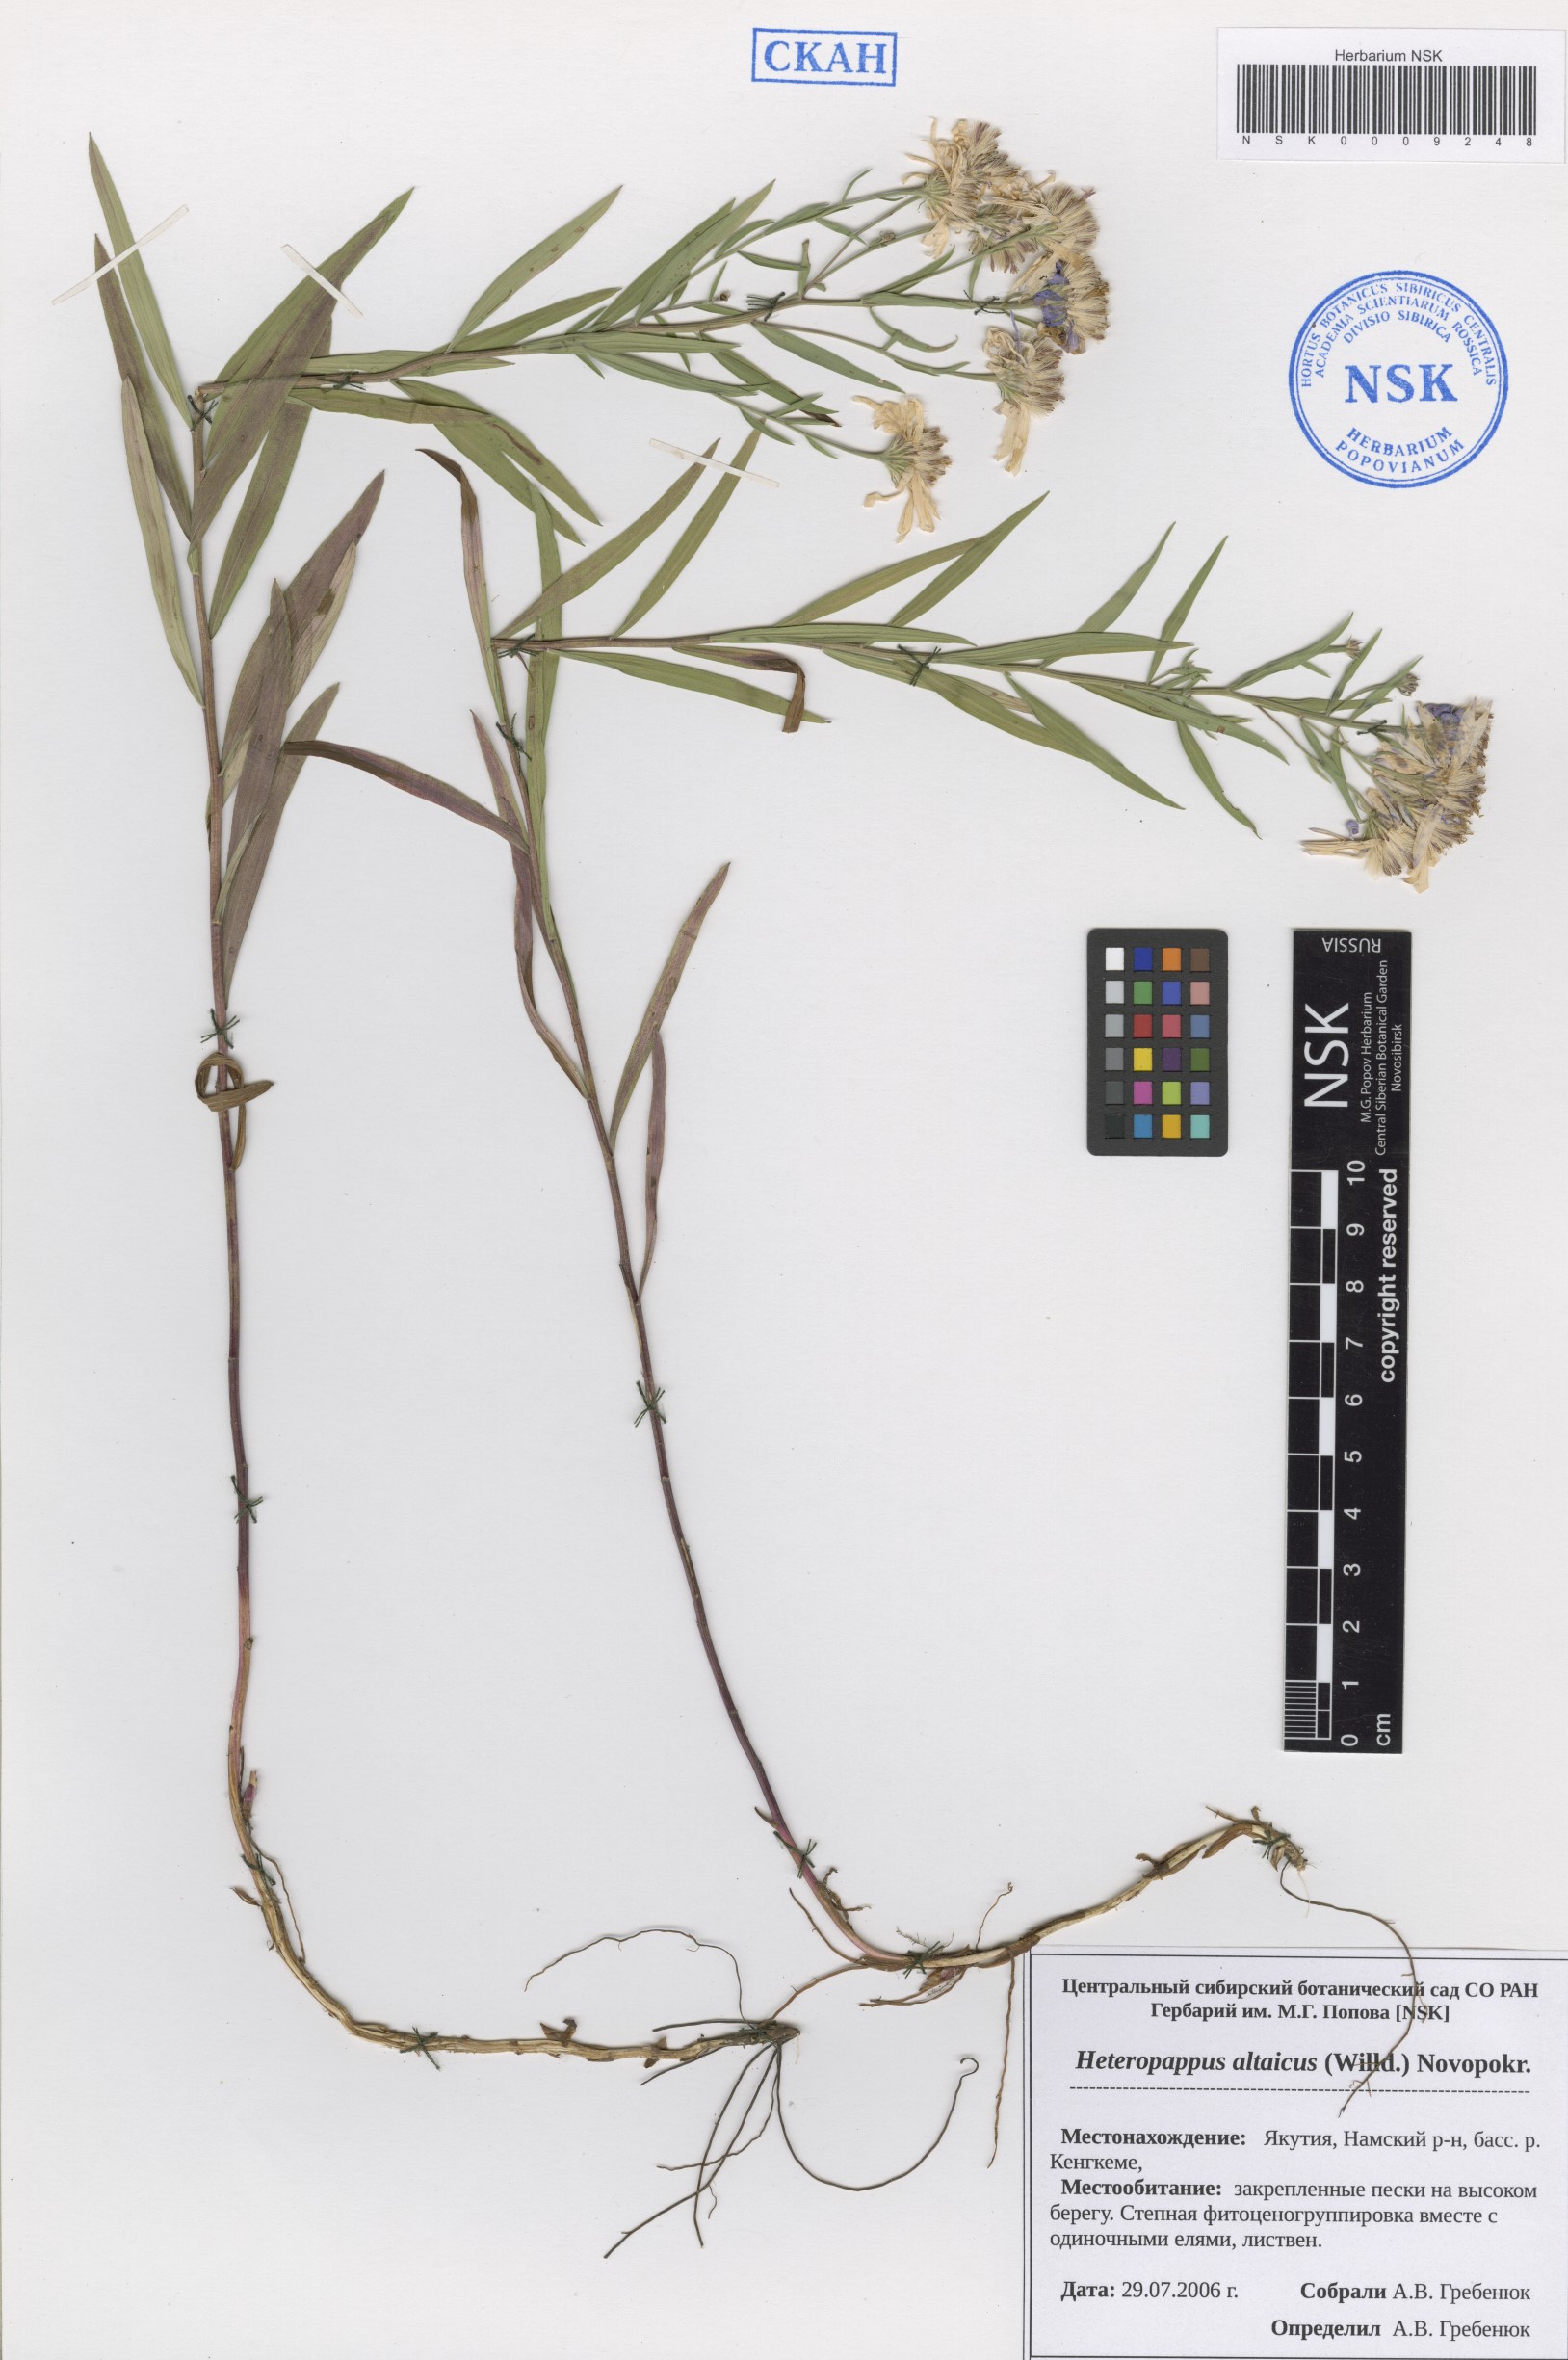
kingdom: Plantae
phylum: Tracheophyta
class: Magnoliopsida
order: Asterales
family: Asteraceae
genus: Heteropappus
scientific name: Heteropappus altaicus
